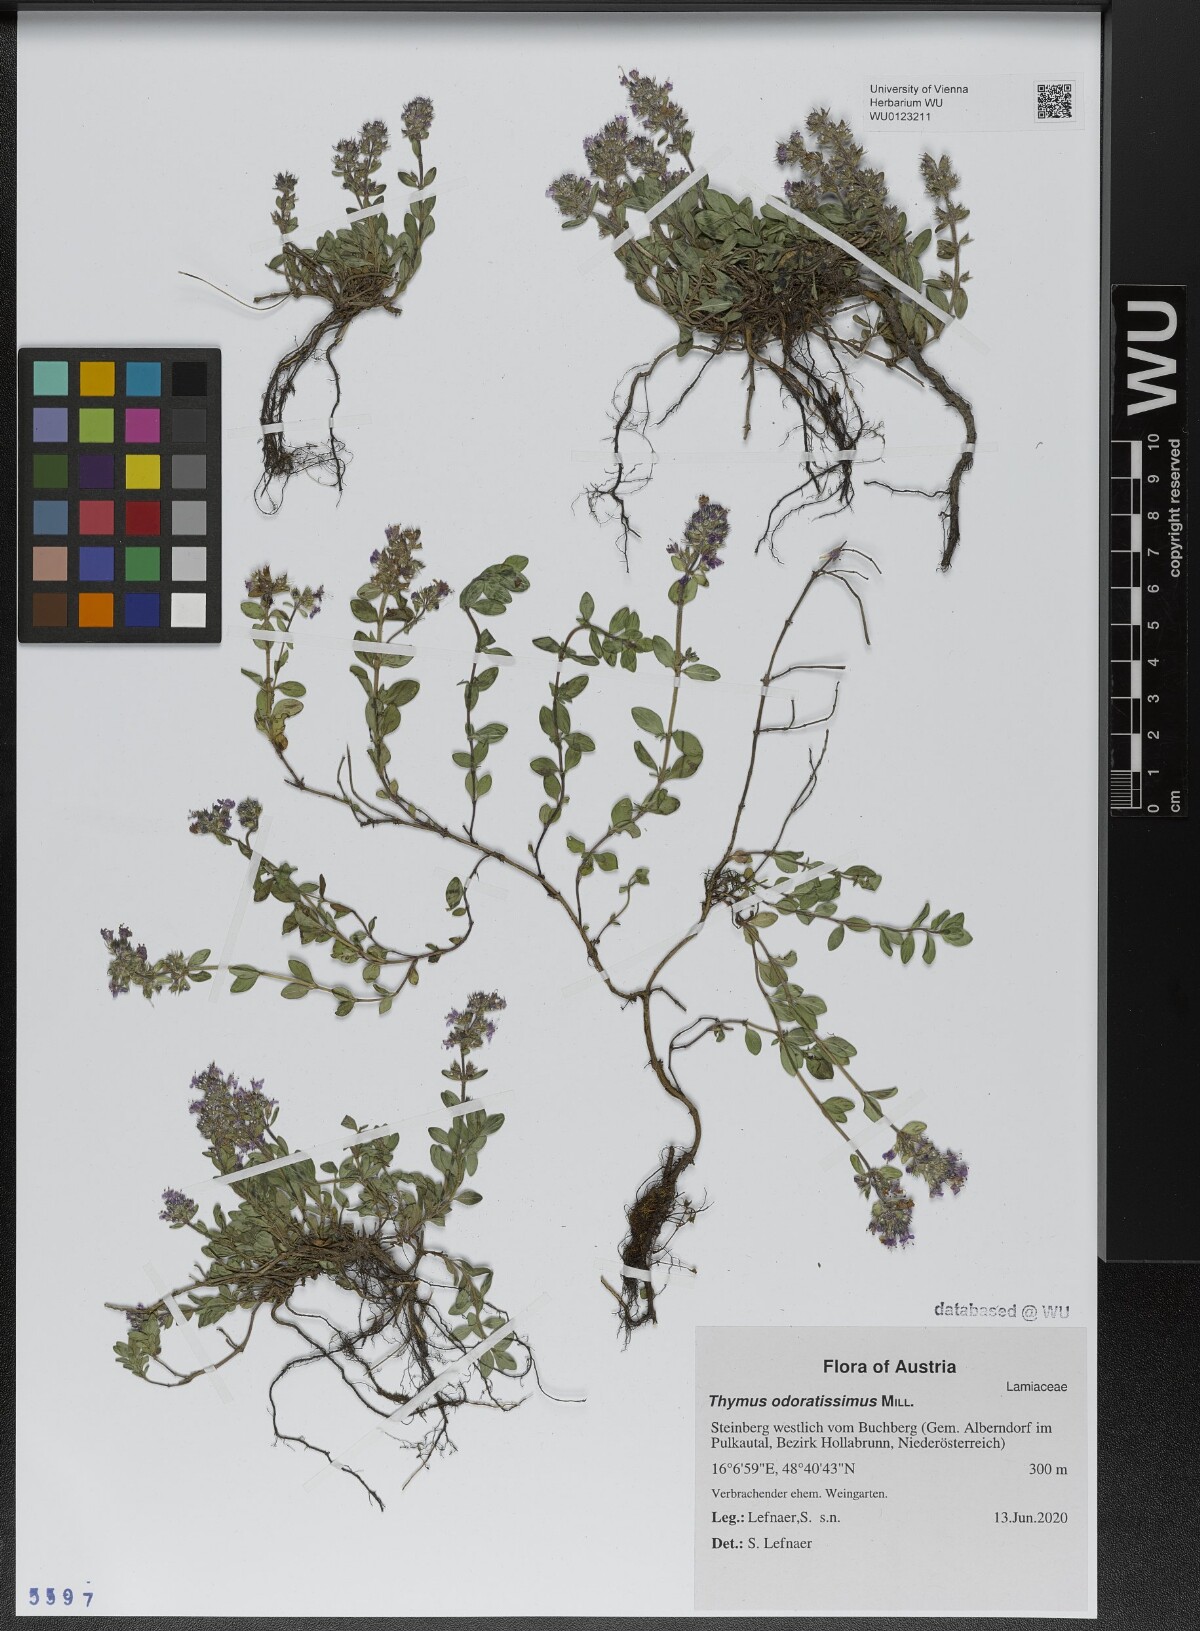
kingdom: Plantae
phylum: Tracheophyta
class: Magnoliopsida
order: Lamiales
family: Lamiaceae
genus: Thymus
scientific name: Thymus odoratissimus
